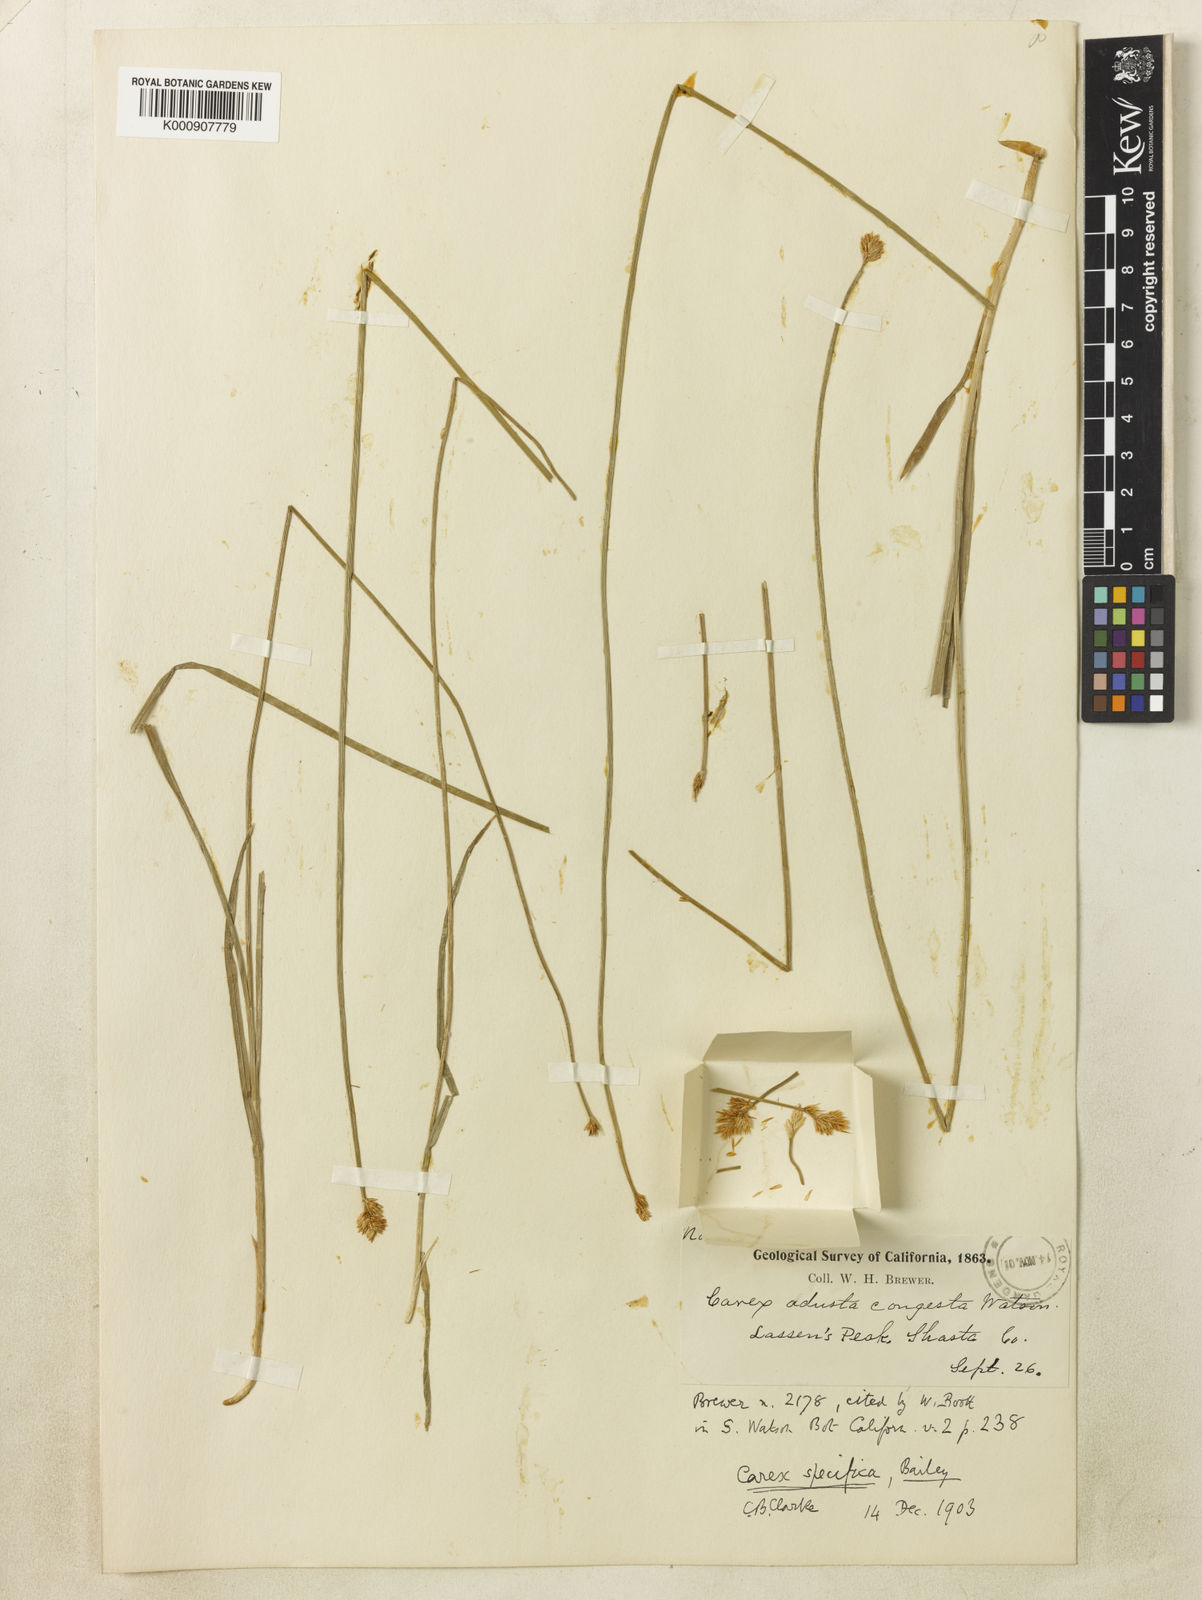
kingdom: Plantae
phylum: Tracheophyta
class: Liliopsida
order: Poales
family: Cyperaceae
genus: Carex
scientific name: Carex specifica
